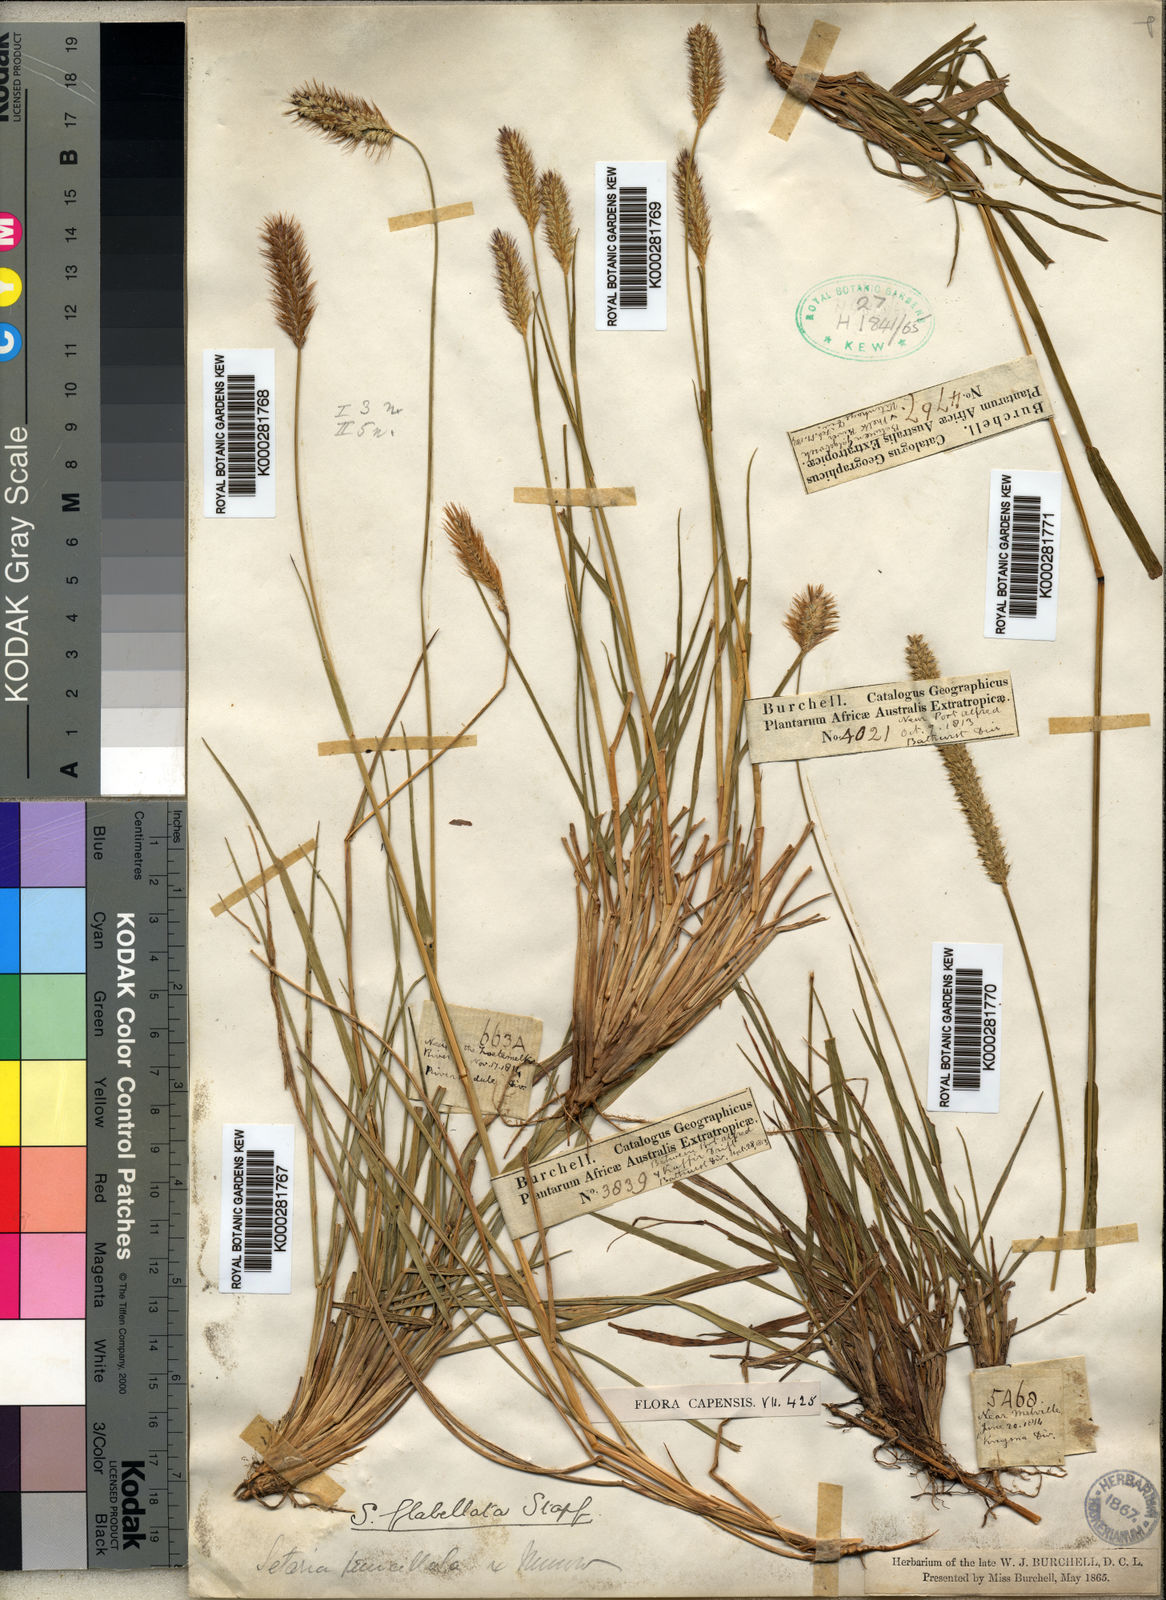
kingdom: Plantae
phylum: Tracheophyta
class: Liliopsida
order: Poales
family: Poaceae
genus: Setaria
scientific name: Setaria sphacelata
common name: African bristlegrass
